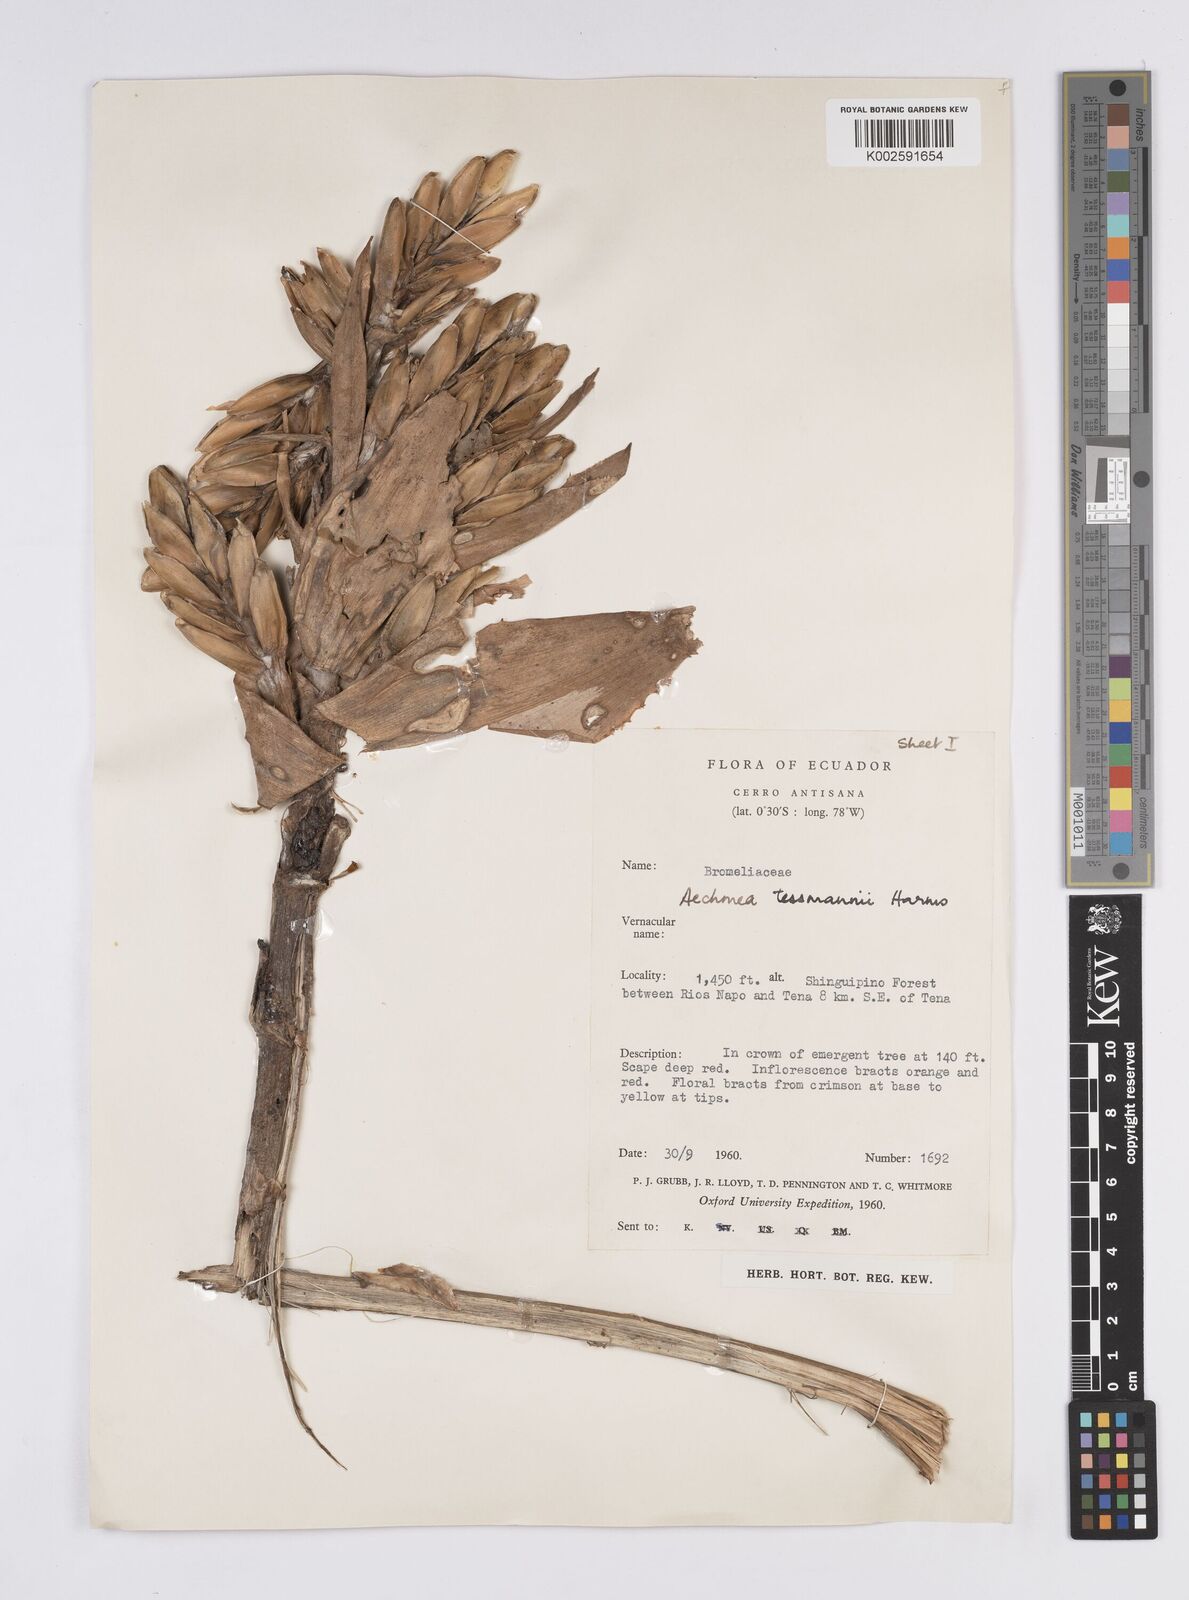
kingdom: Plantae
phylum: Tracheophyta
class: Liliopsida
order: Poales
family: Bromeliaceae
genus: Aechmea
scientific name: Aechmea tessmannii
